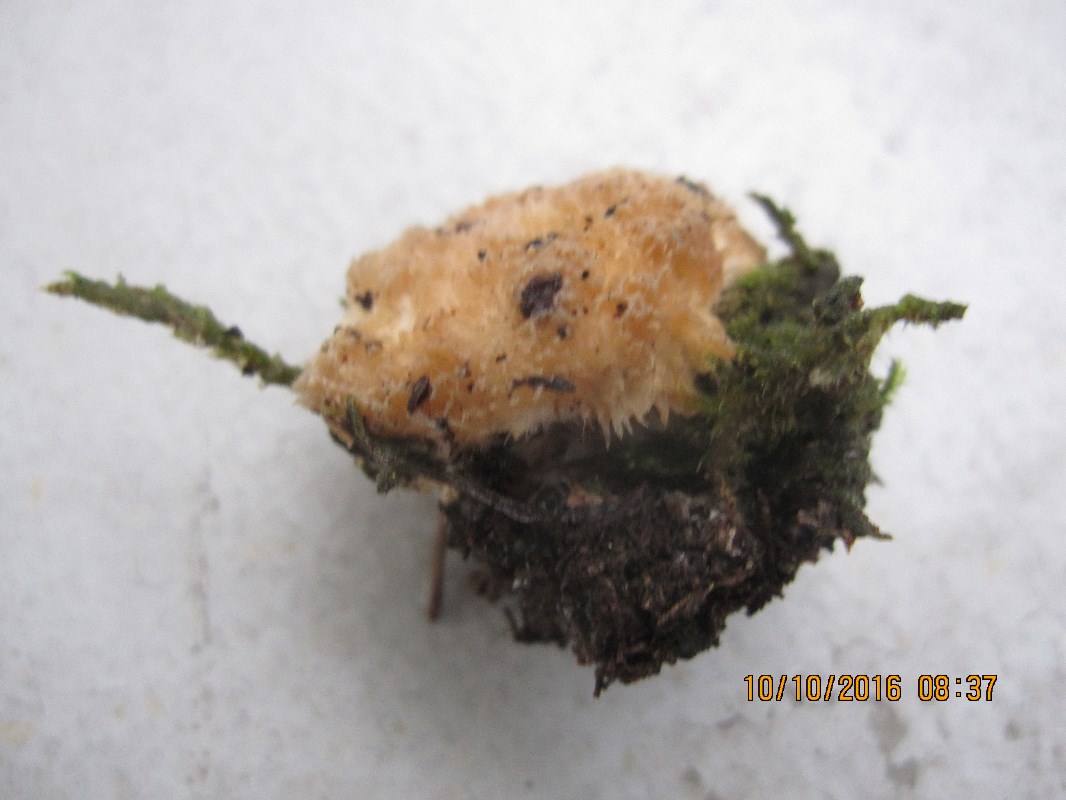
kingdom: Fungi
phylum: Basidiomycota
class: Agaricomycetes
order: Polyporales
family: Dacryobolaceae
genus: Postia
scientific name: Postia ptychogaster
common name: støvende kødporesvamp
